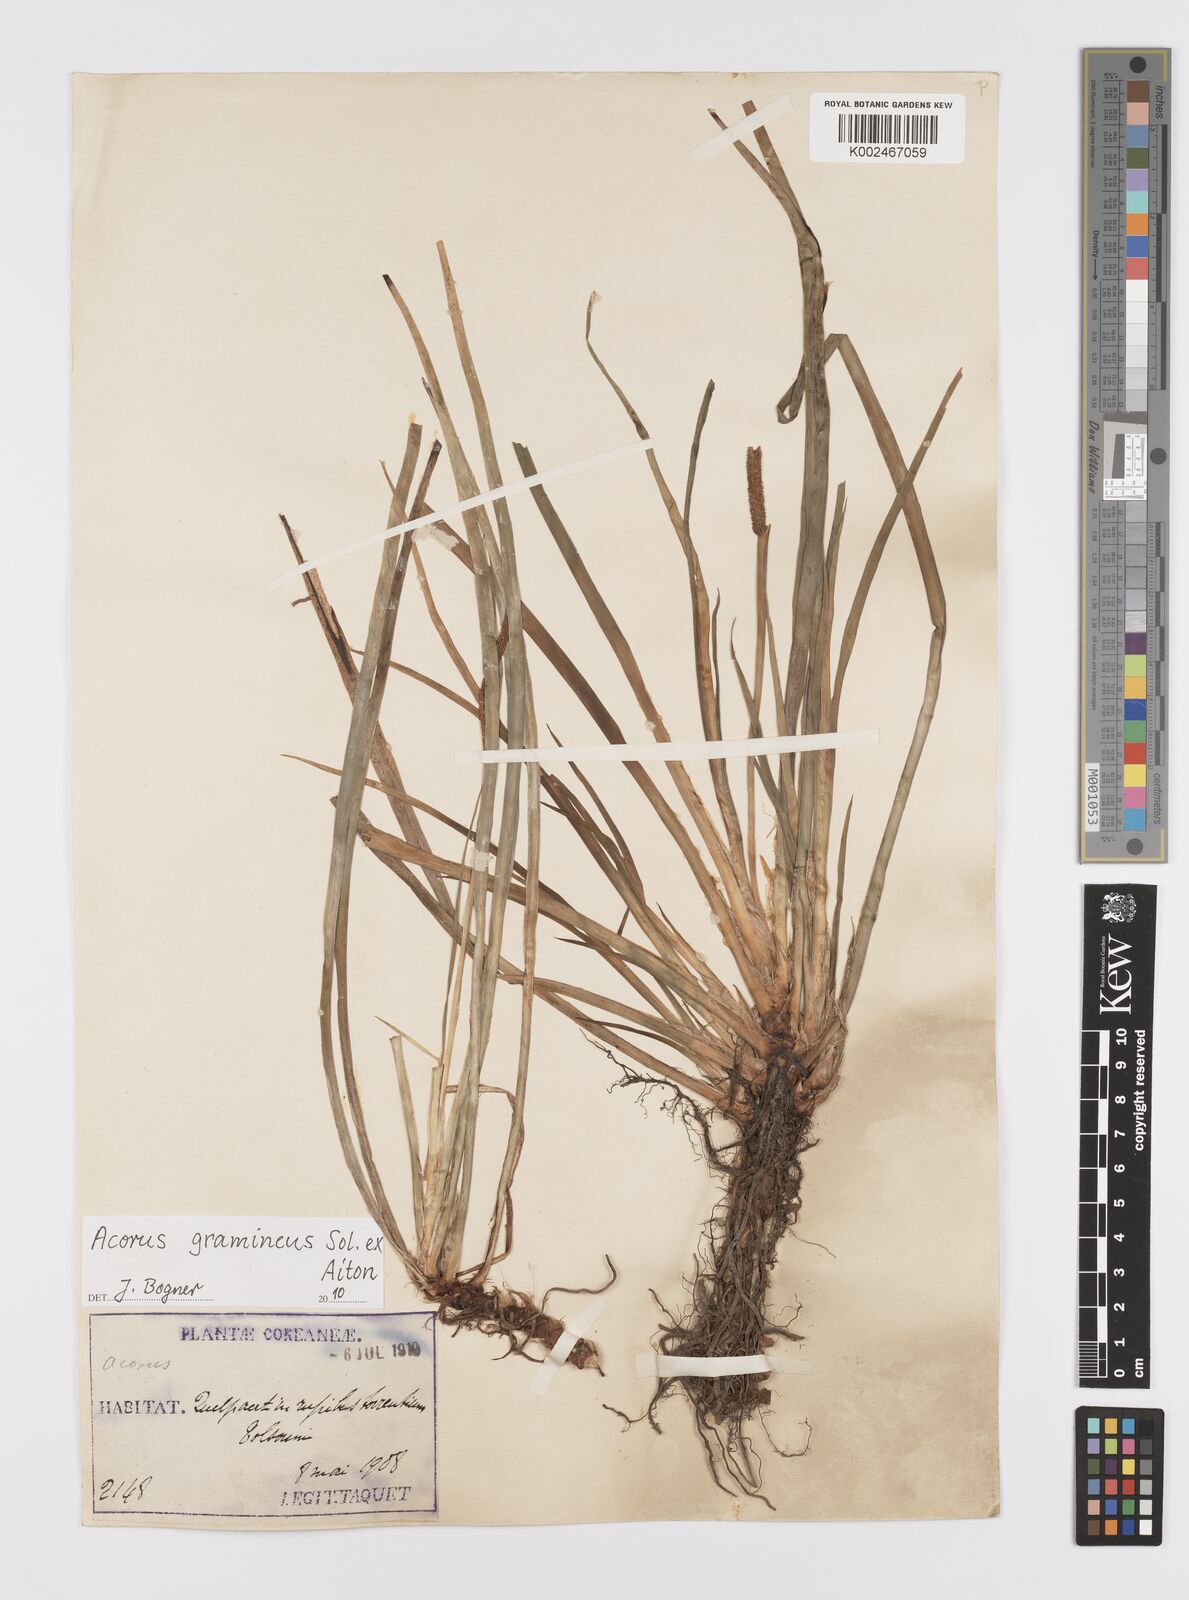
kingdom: Plantae
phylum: Tracheophyta
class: Liliopsida
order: Acorales
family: Acoraceae
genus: Acorus
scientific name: Acorus gramineus
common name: Slender sweet-flag
